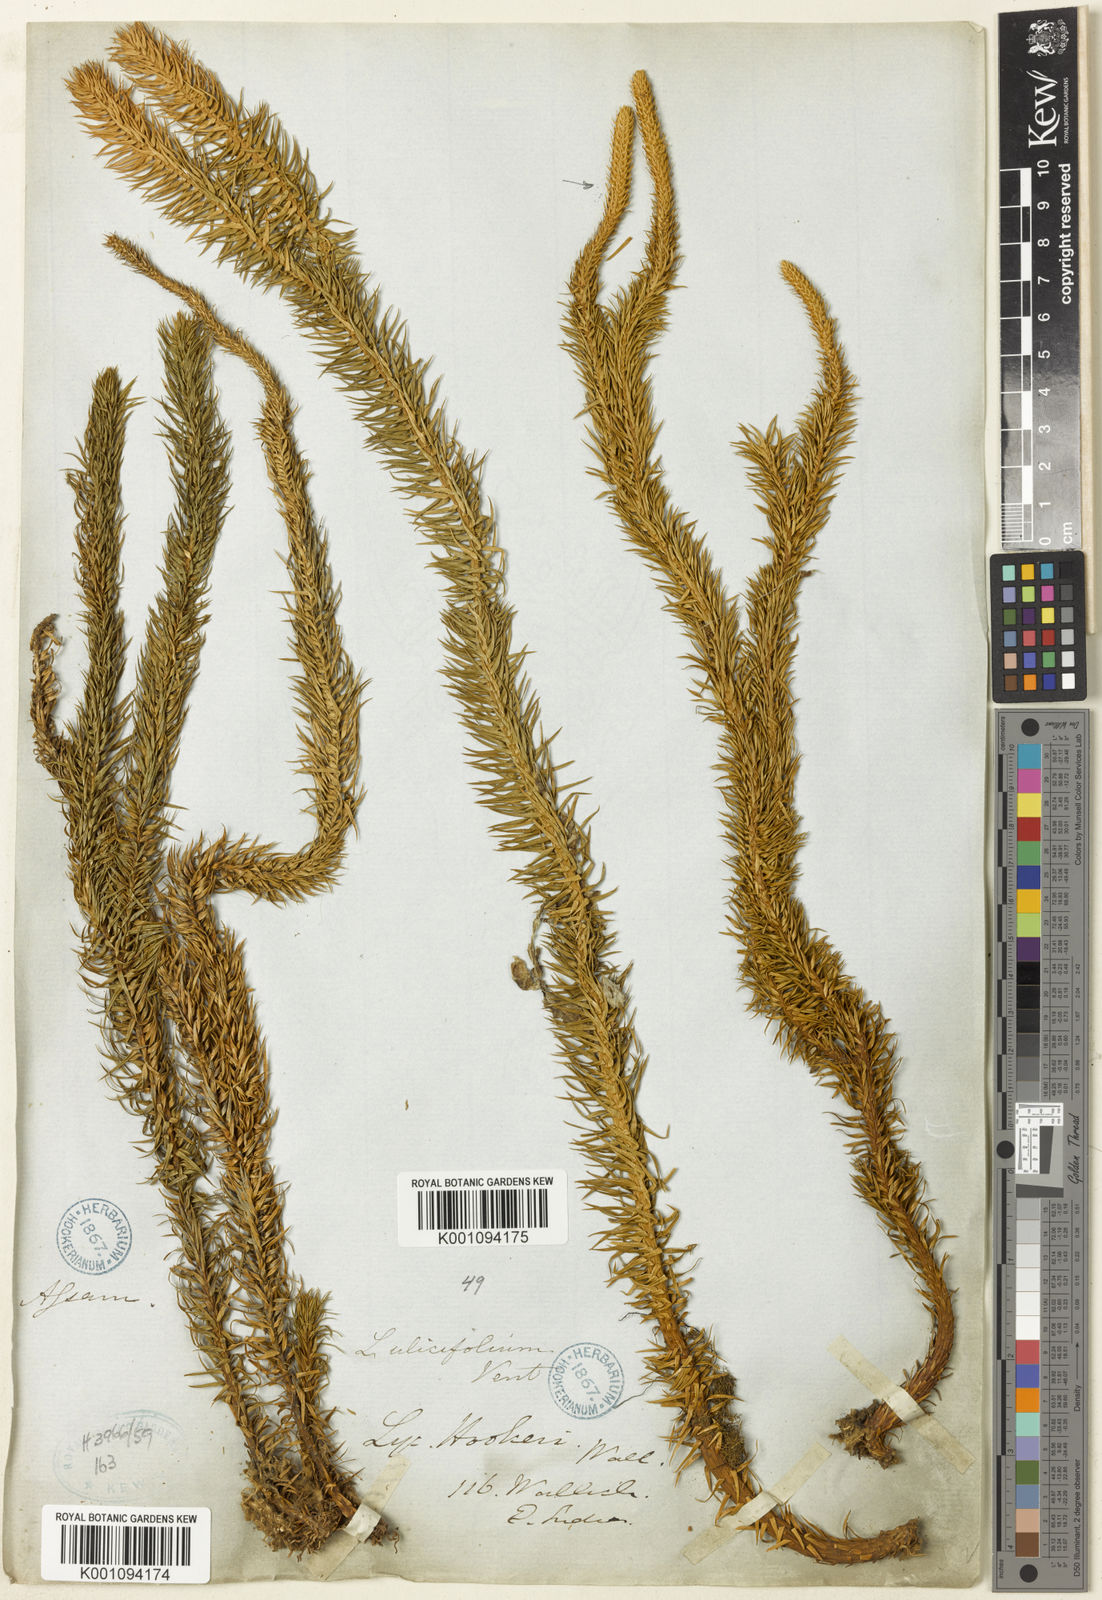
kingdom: Plantae
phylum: Tracheophyta
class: Lycopodiopsida
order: Lycopodiales
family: Lycopodiaceae
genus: Phlegmariurus
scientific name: Phlegmariurus squarrosus
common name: Rock tassel-fern
